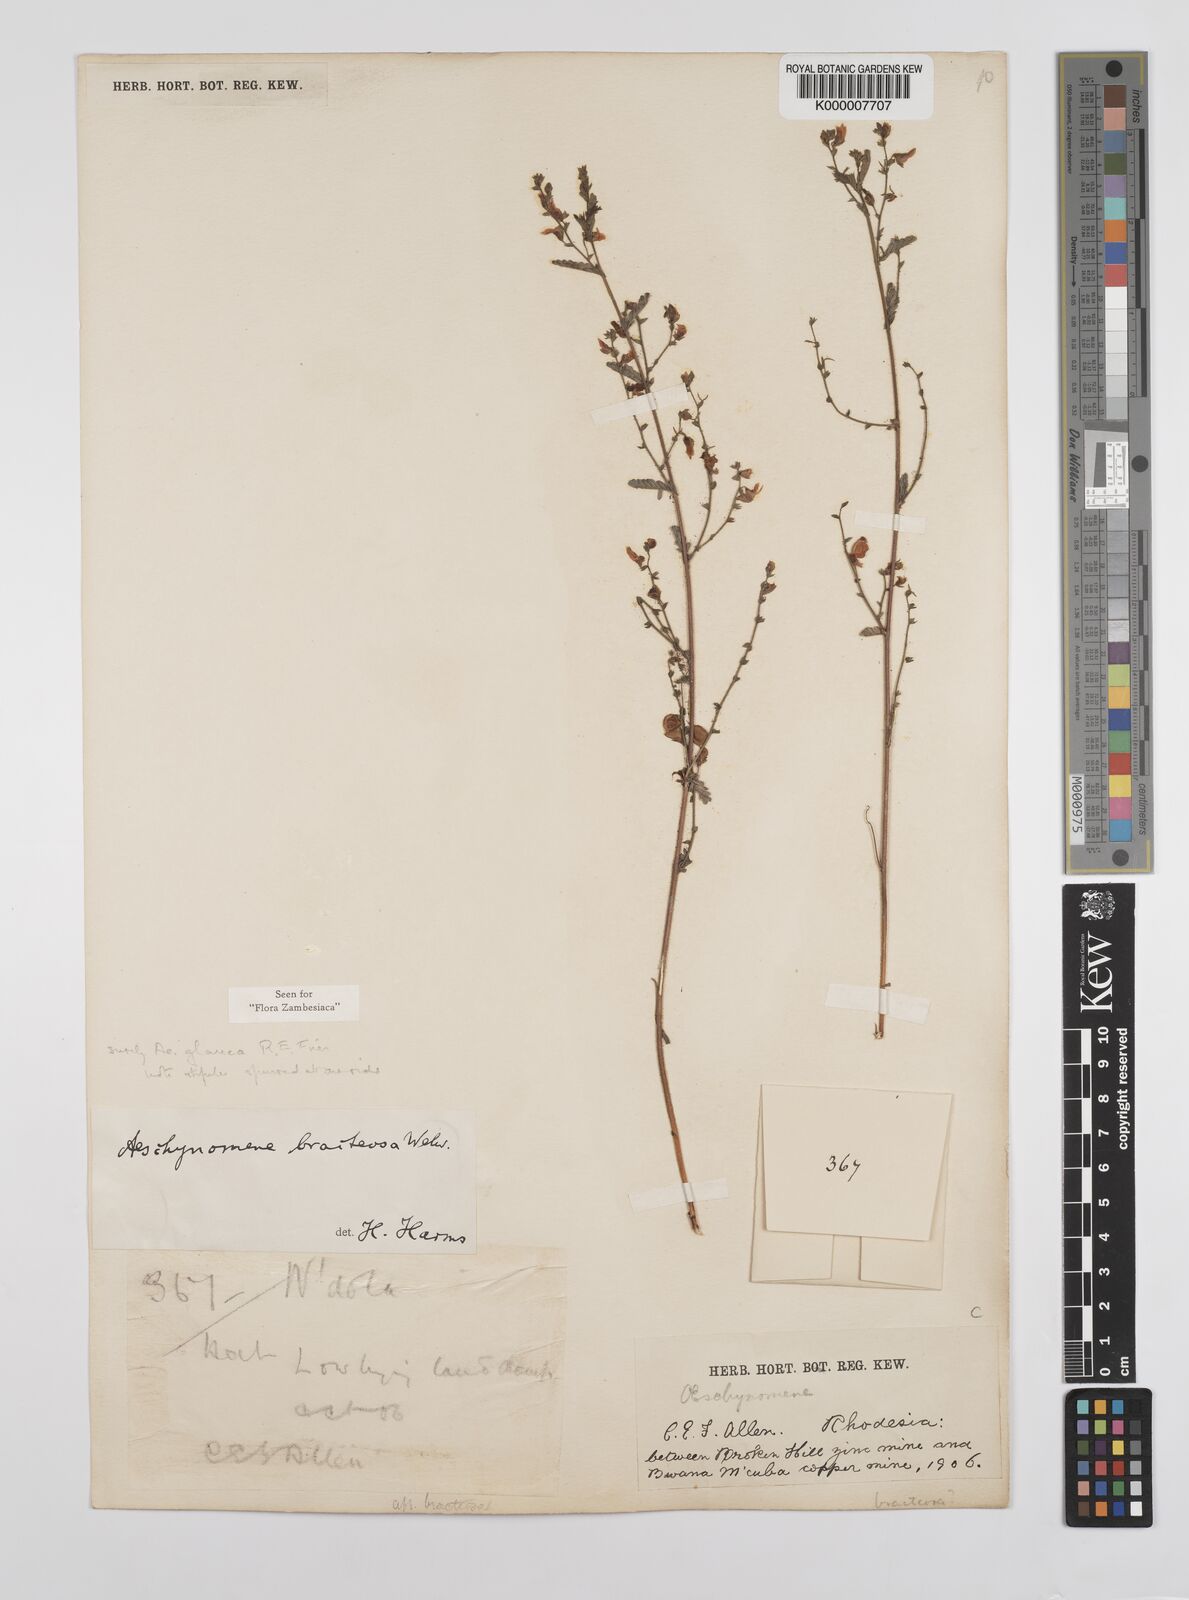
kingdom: Plantae
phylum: Tracheophyta
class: Magnoliopsida
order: Fabales
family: Fabaceae
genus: Aeschynomene
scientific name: Aeschynomene glauca
